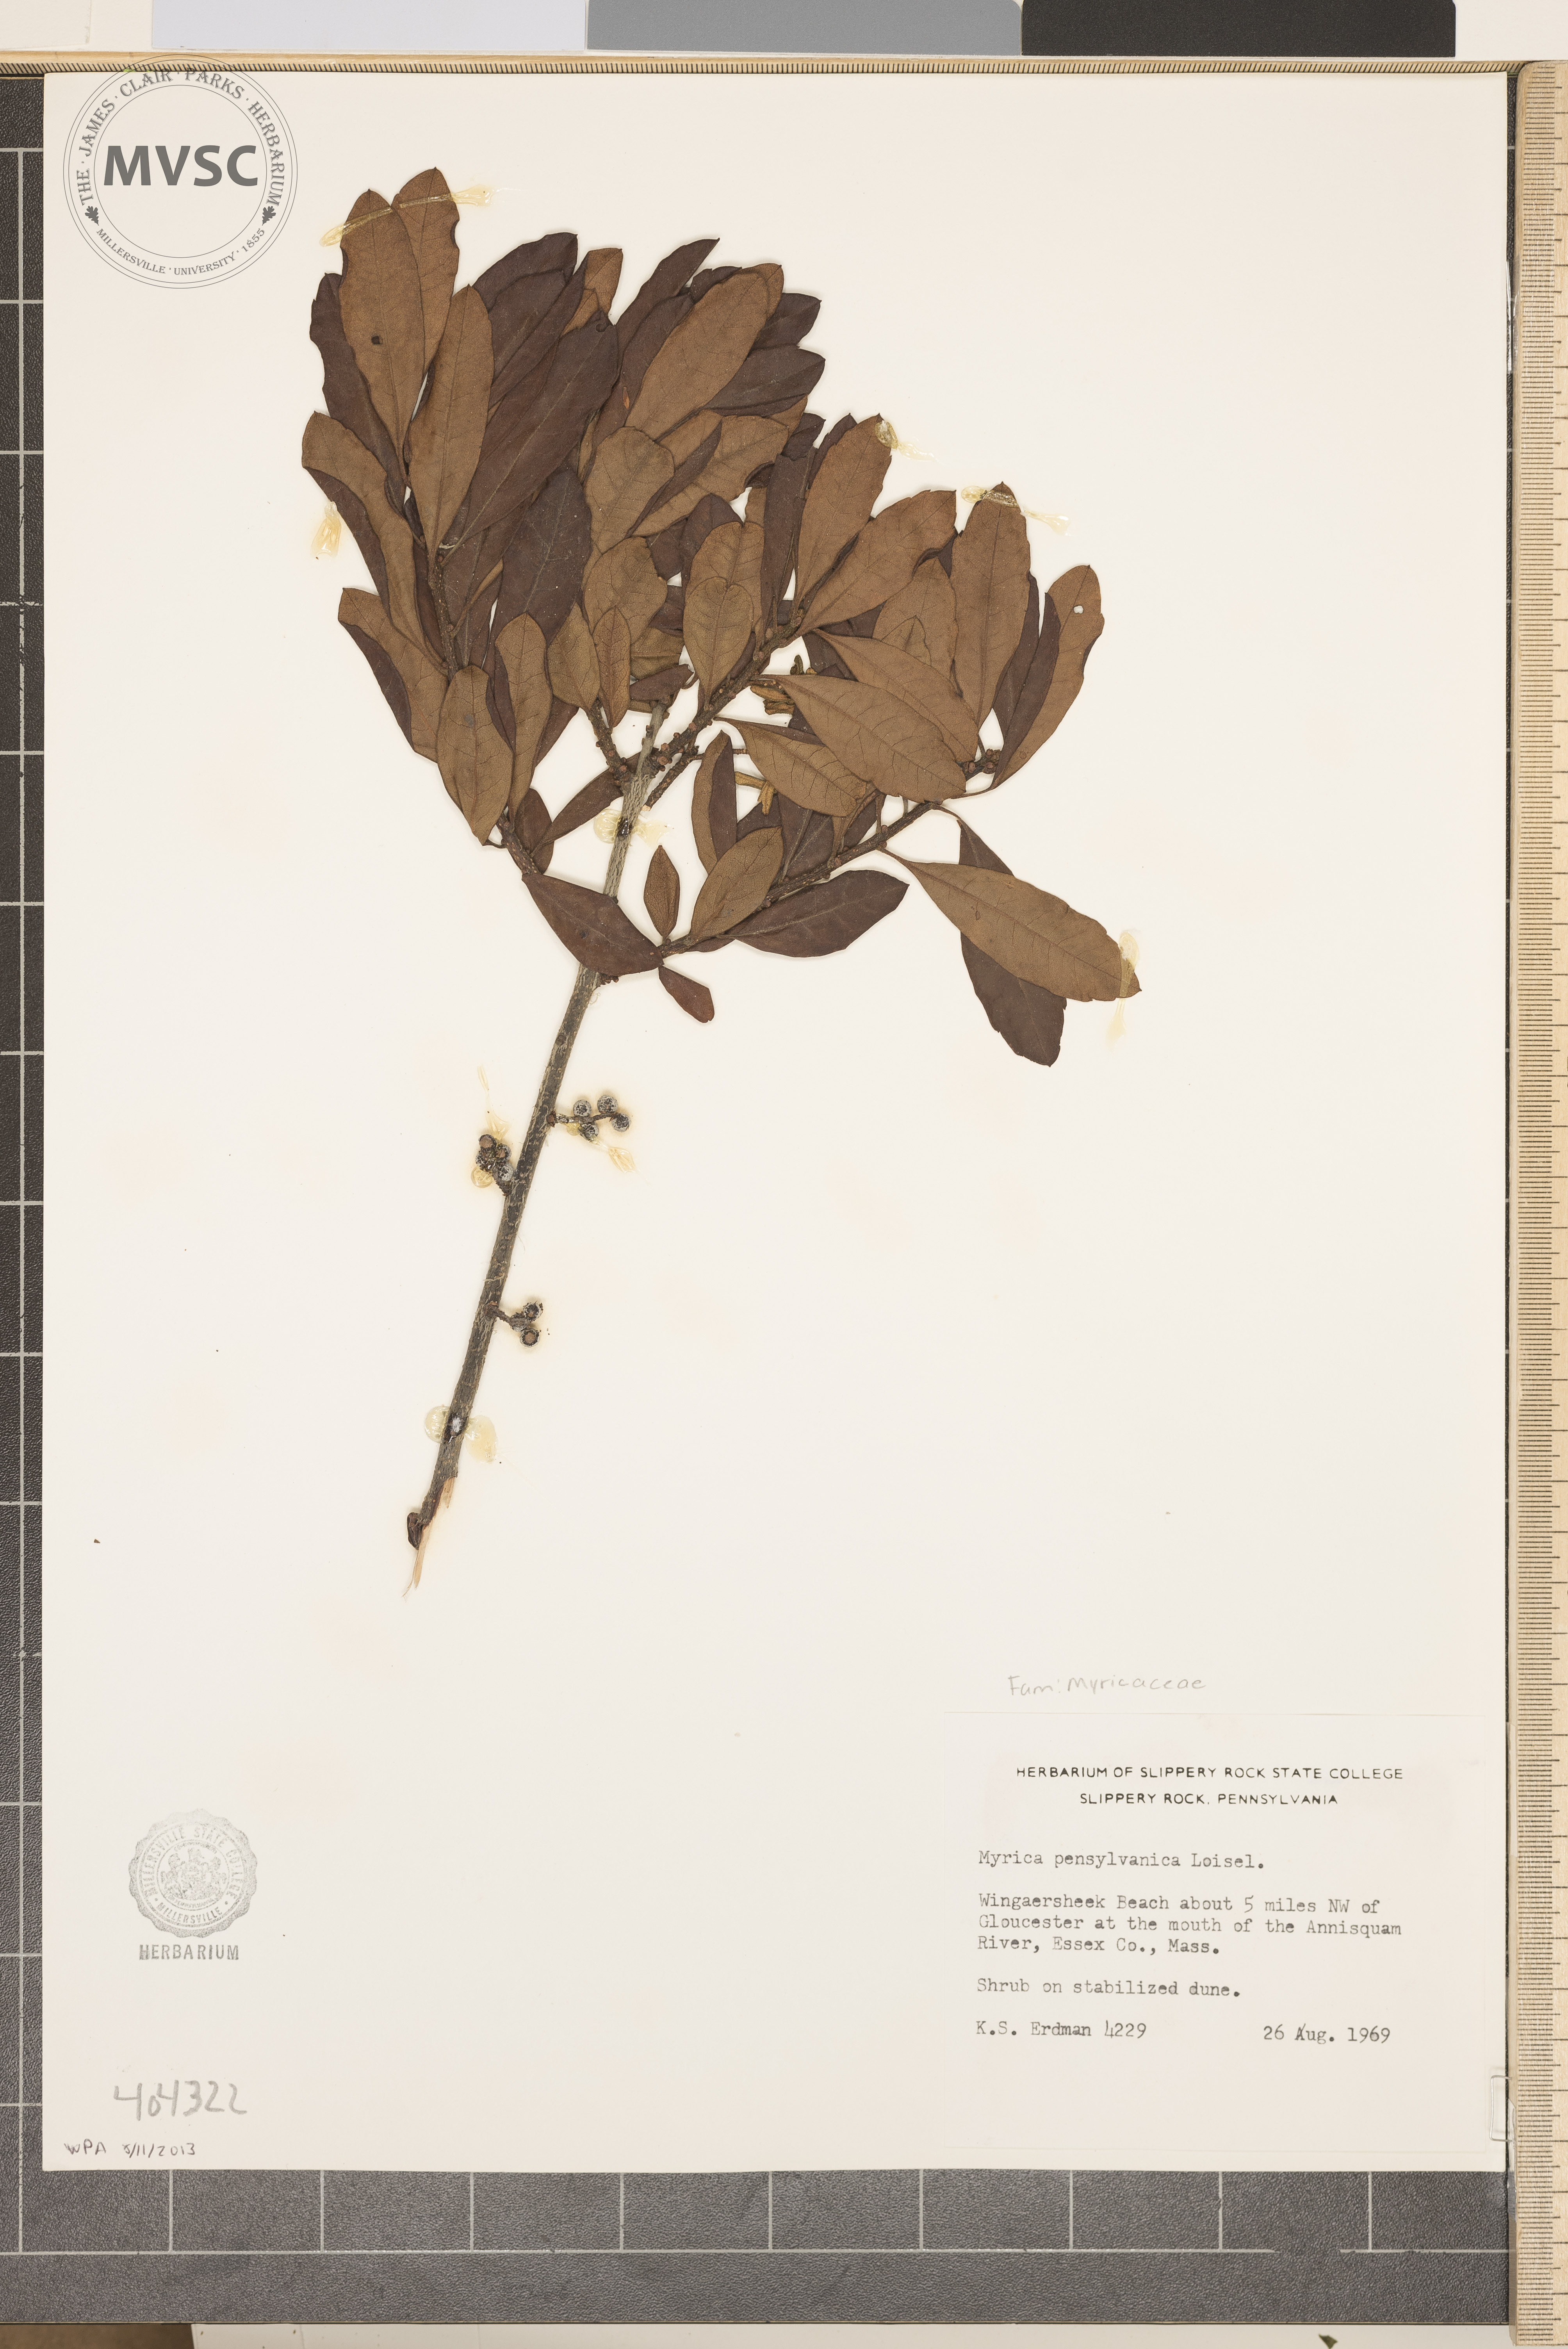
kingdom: Plantae
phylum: Tracheophyta
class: Magnoliopsida
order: Fagales
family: Myricaceae
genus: Morella
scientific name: Morella
